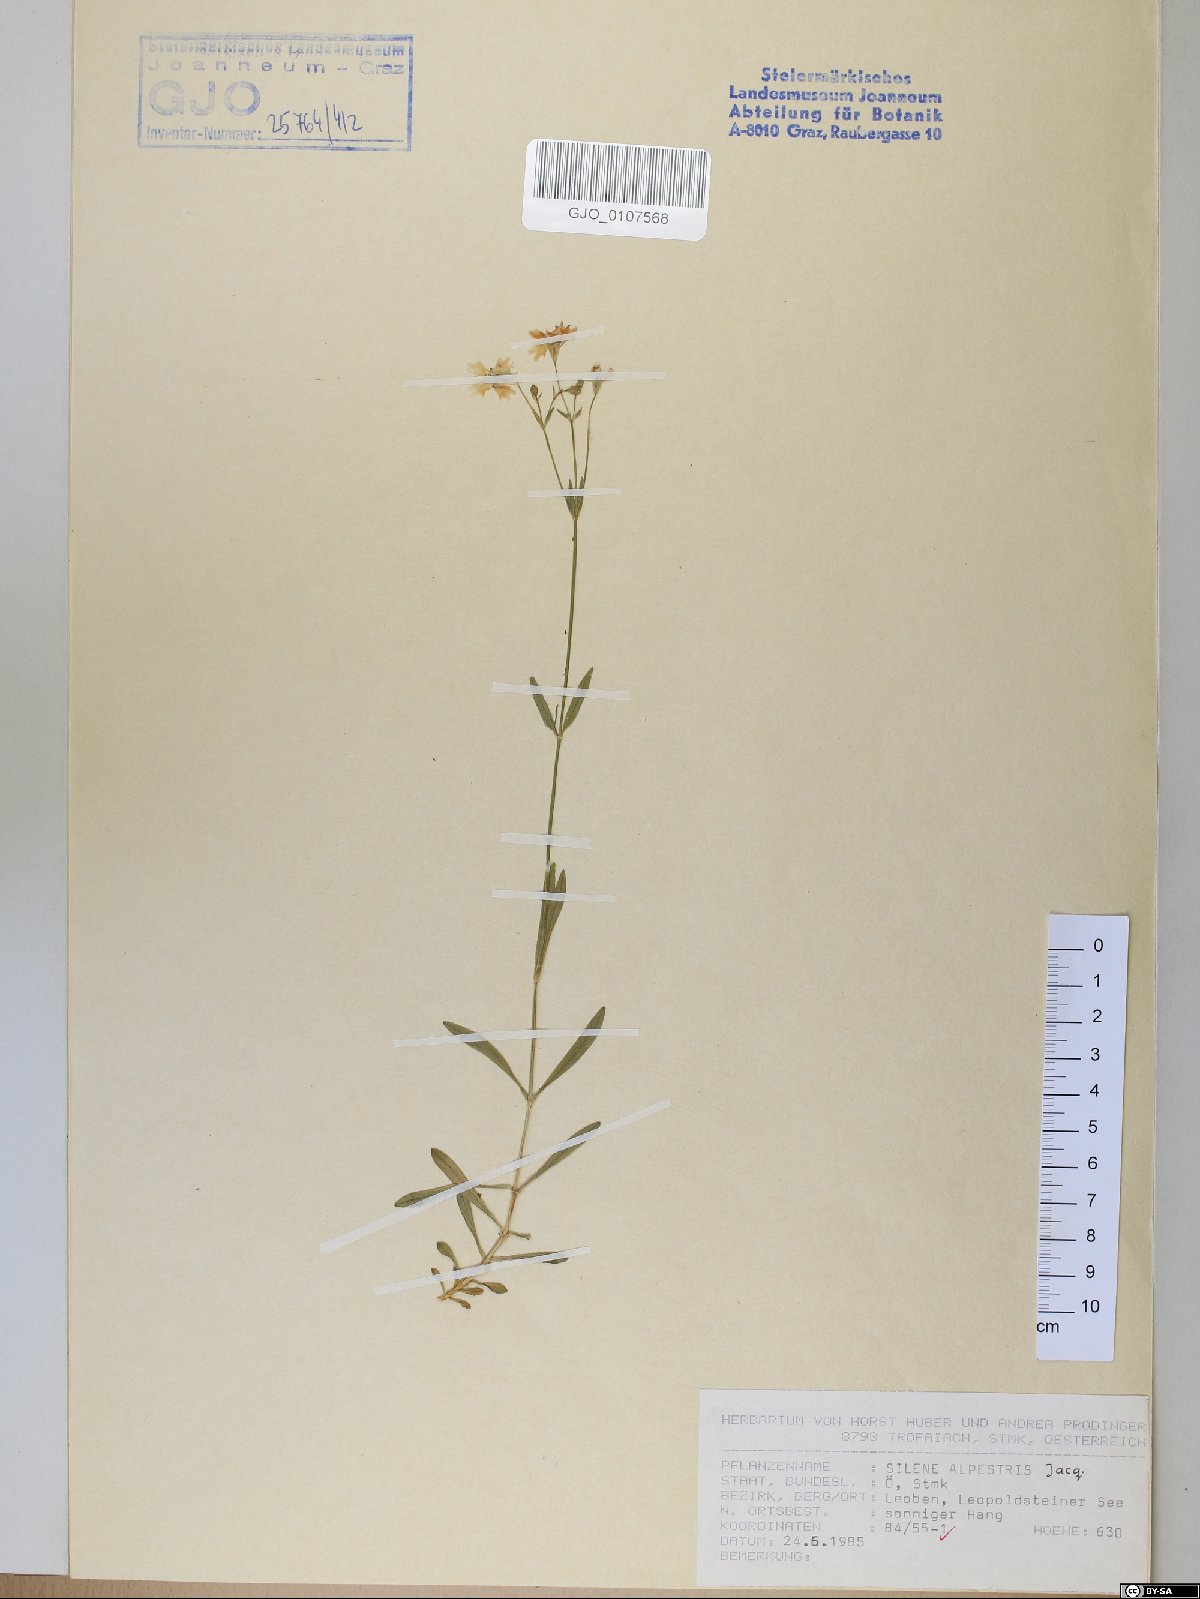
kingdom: Plantae
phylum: Tracheophyta
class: Magnoliopsida
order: Caryophyllales
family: Caryophyllaceae
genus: Heliosperma
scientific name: Heliosperma alpestre
